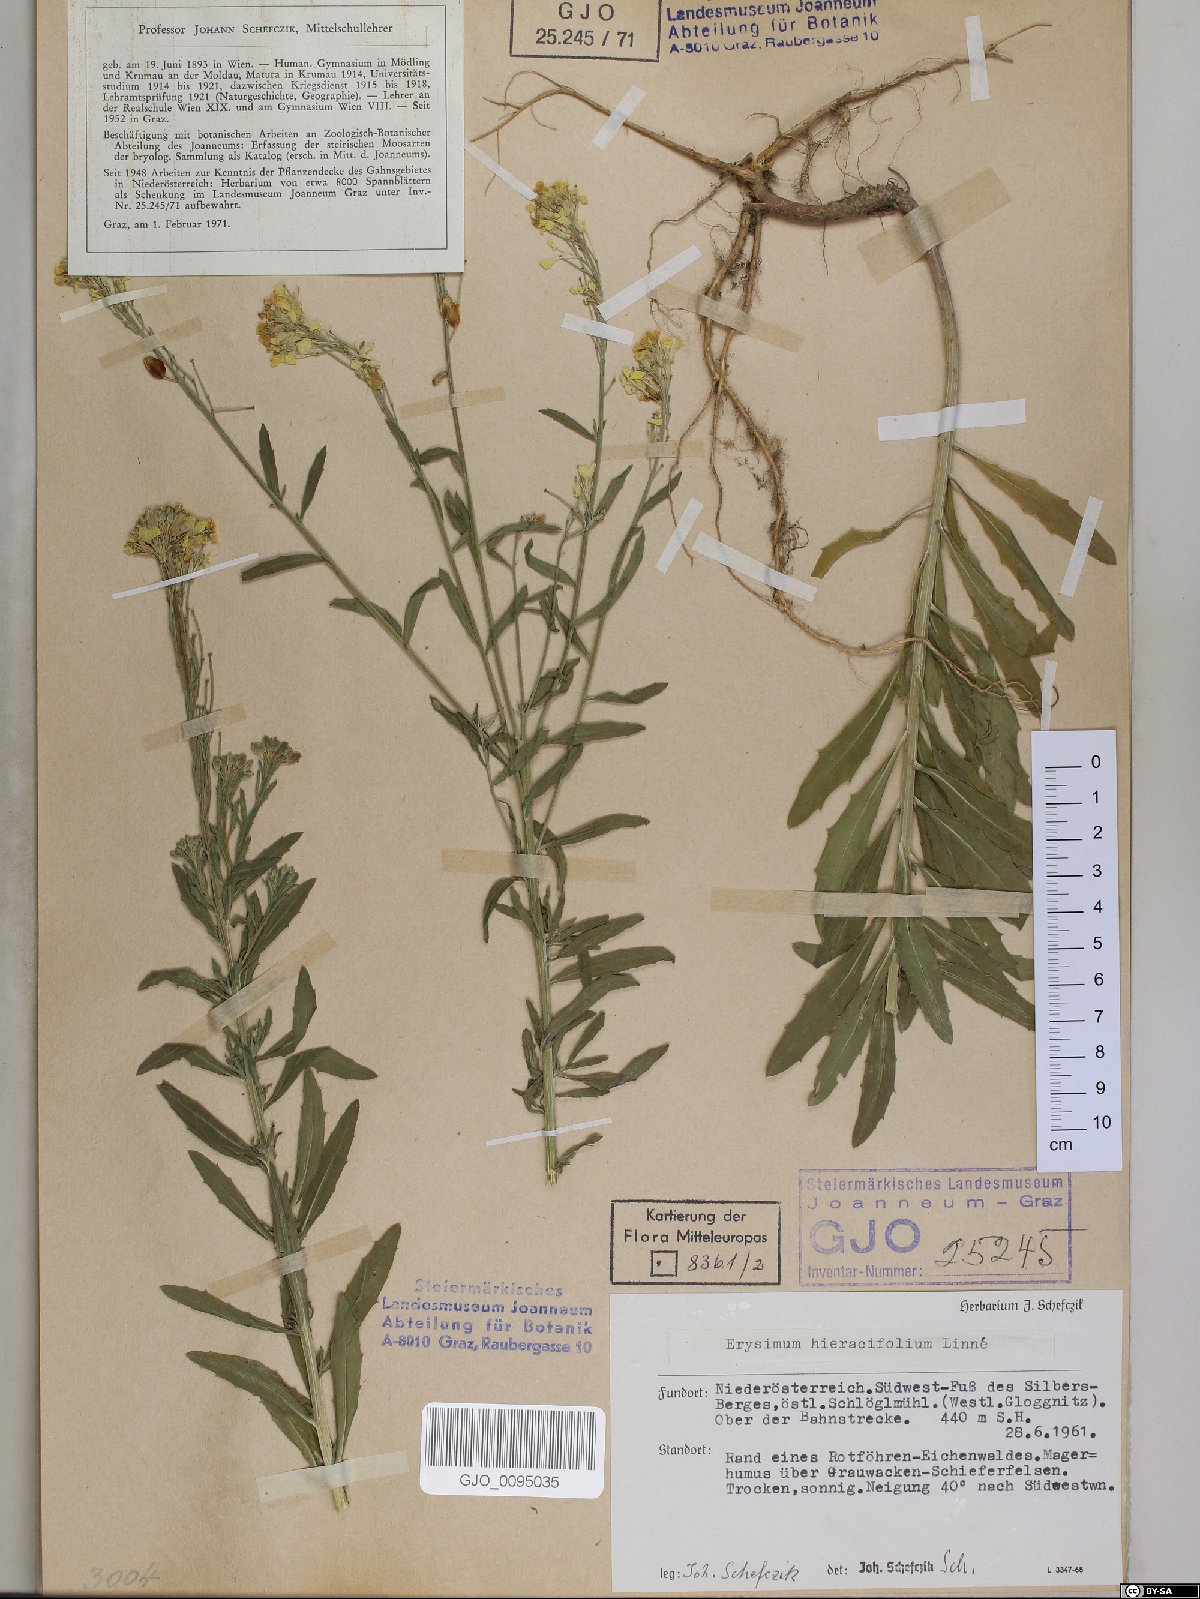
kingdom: Plantae
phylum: Tracheophyta
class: Magnoliopsida
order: Brassicales
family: Brassicaceae
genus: Erysimum
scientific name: Erysimum hieraciifolium
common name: European wallflower
